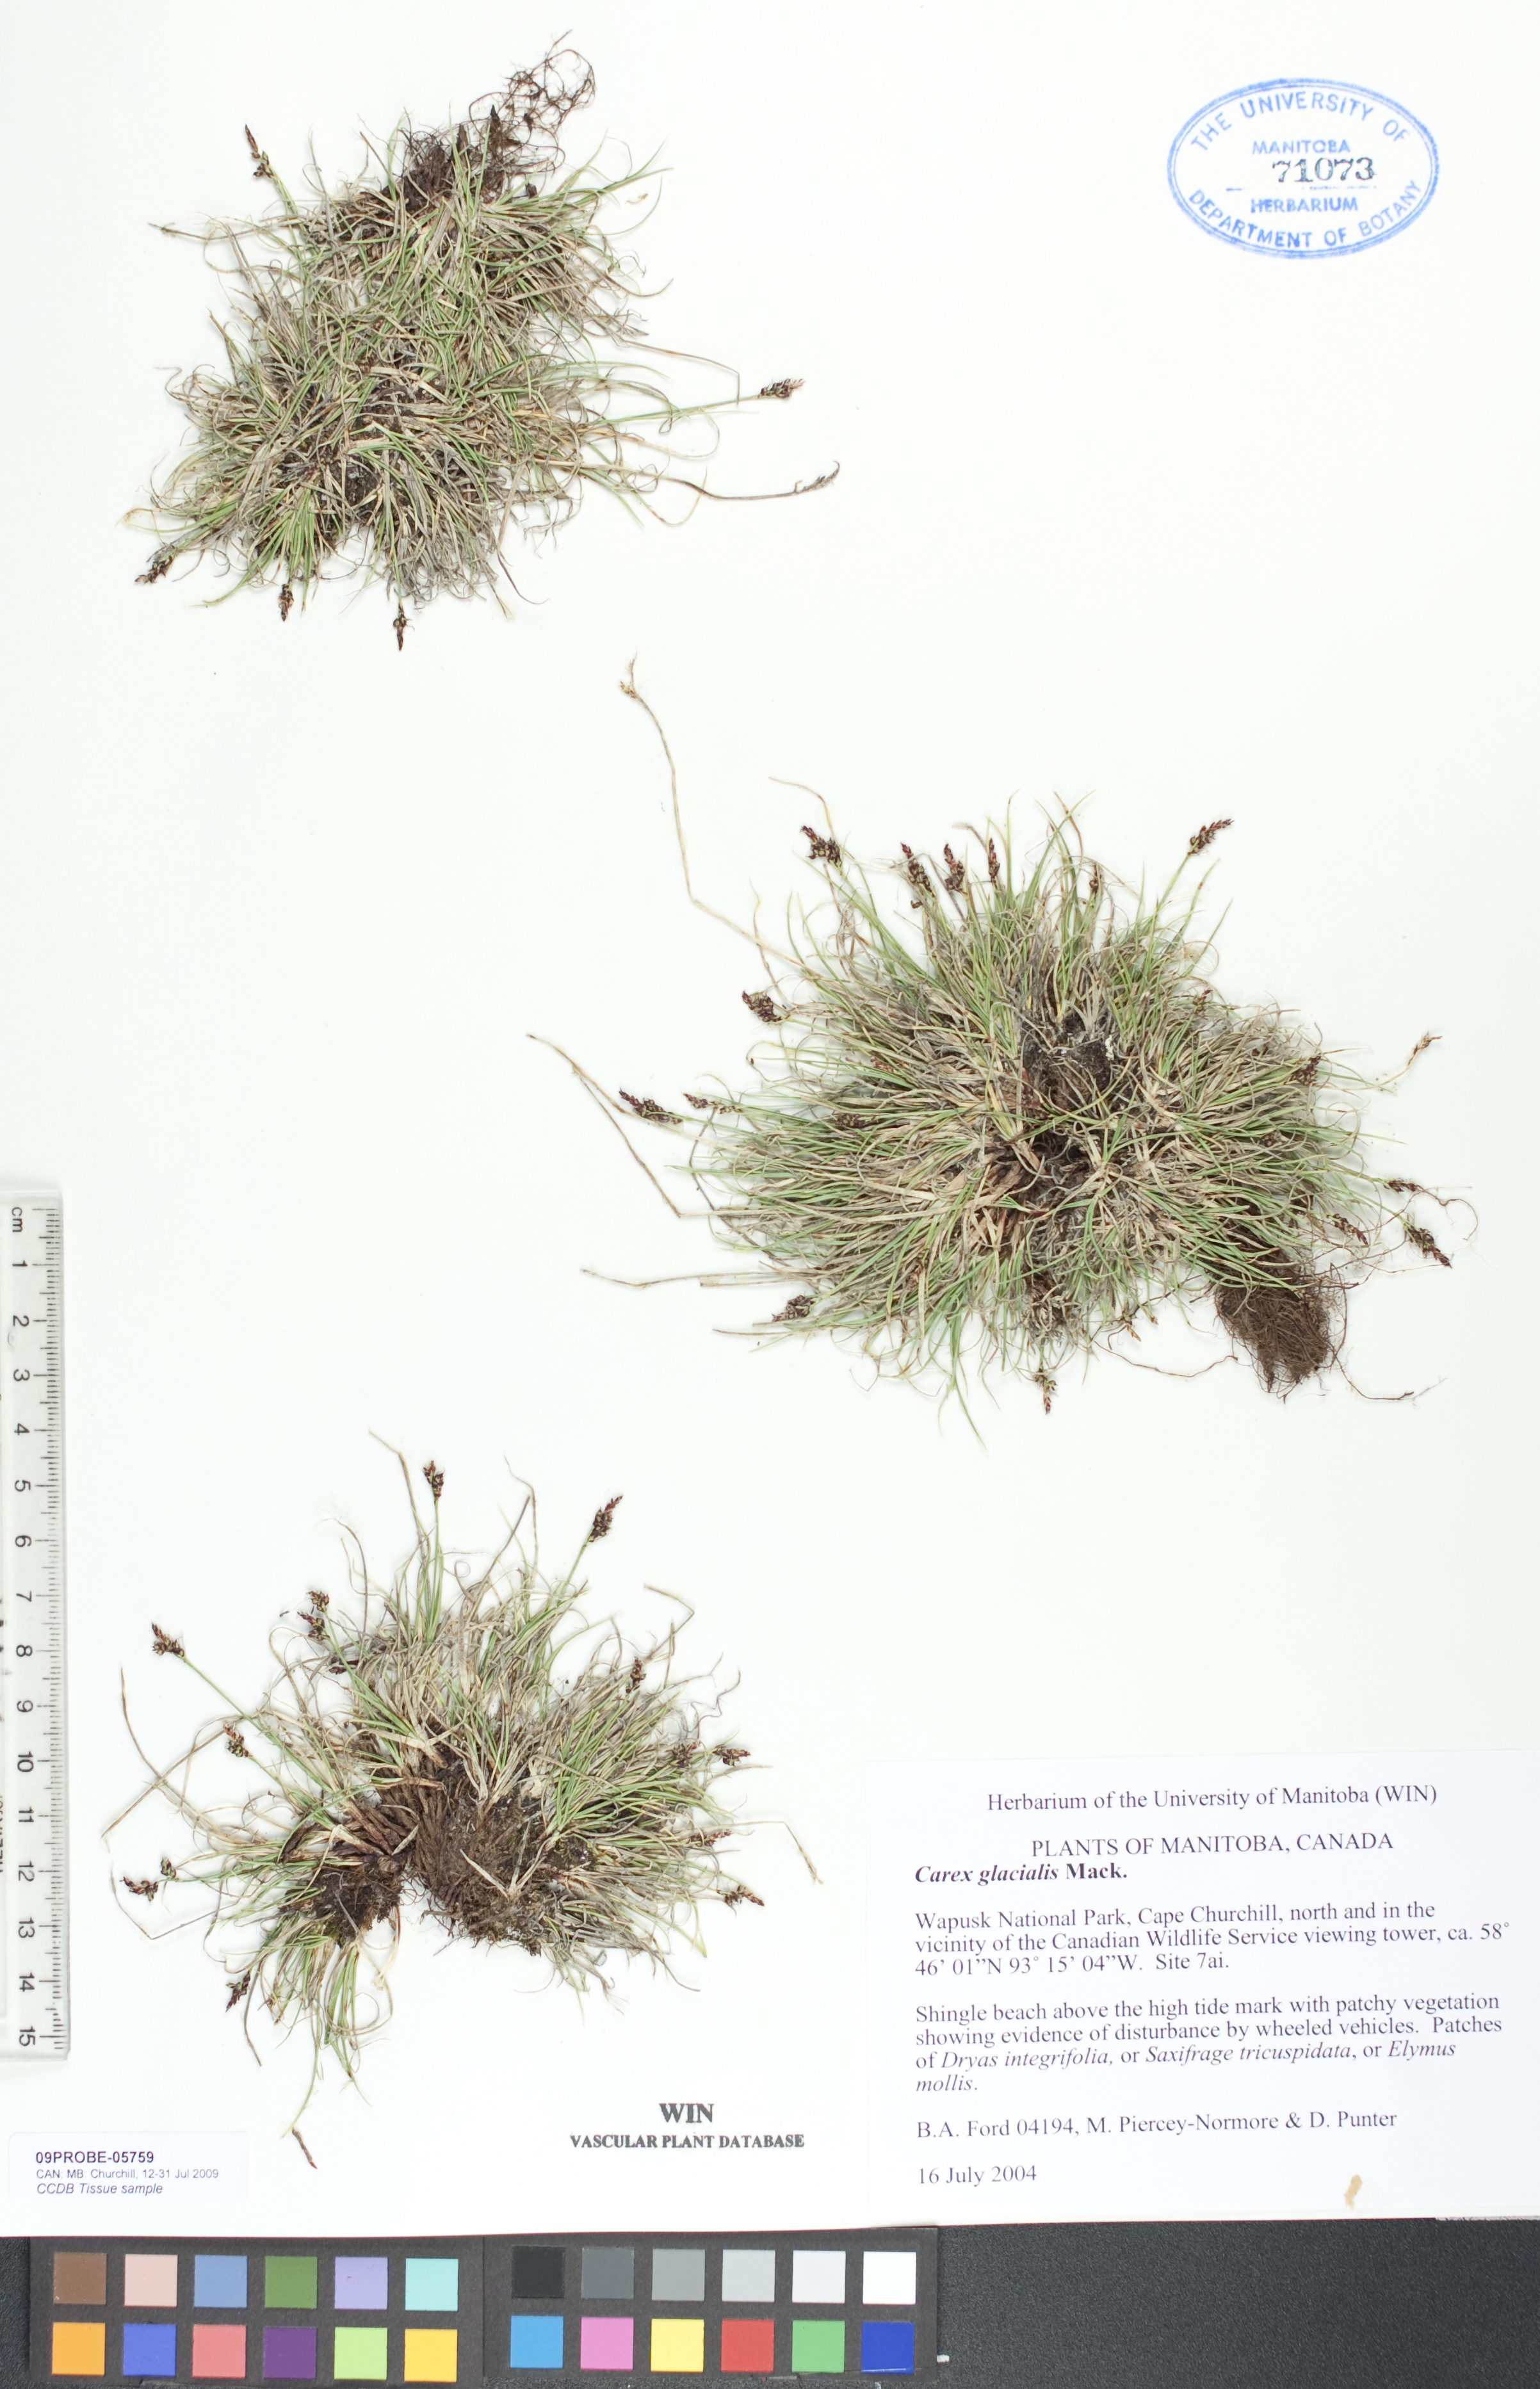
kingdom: Plantae
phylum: Tracheophyta
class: Liliopsida
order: Poales
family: Cyperaceae
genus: Carex
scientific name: Carex glacialis
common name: Newfoundland sedge
